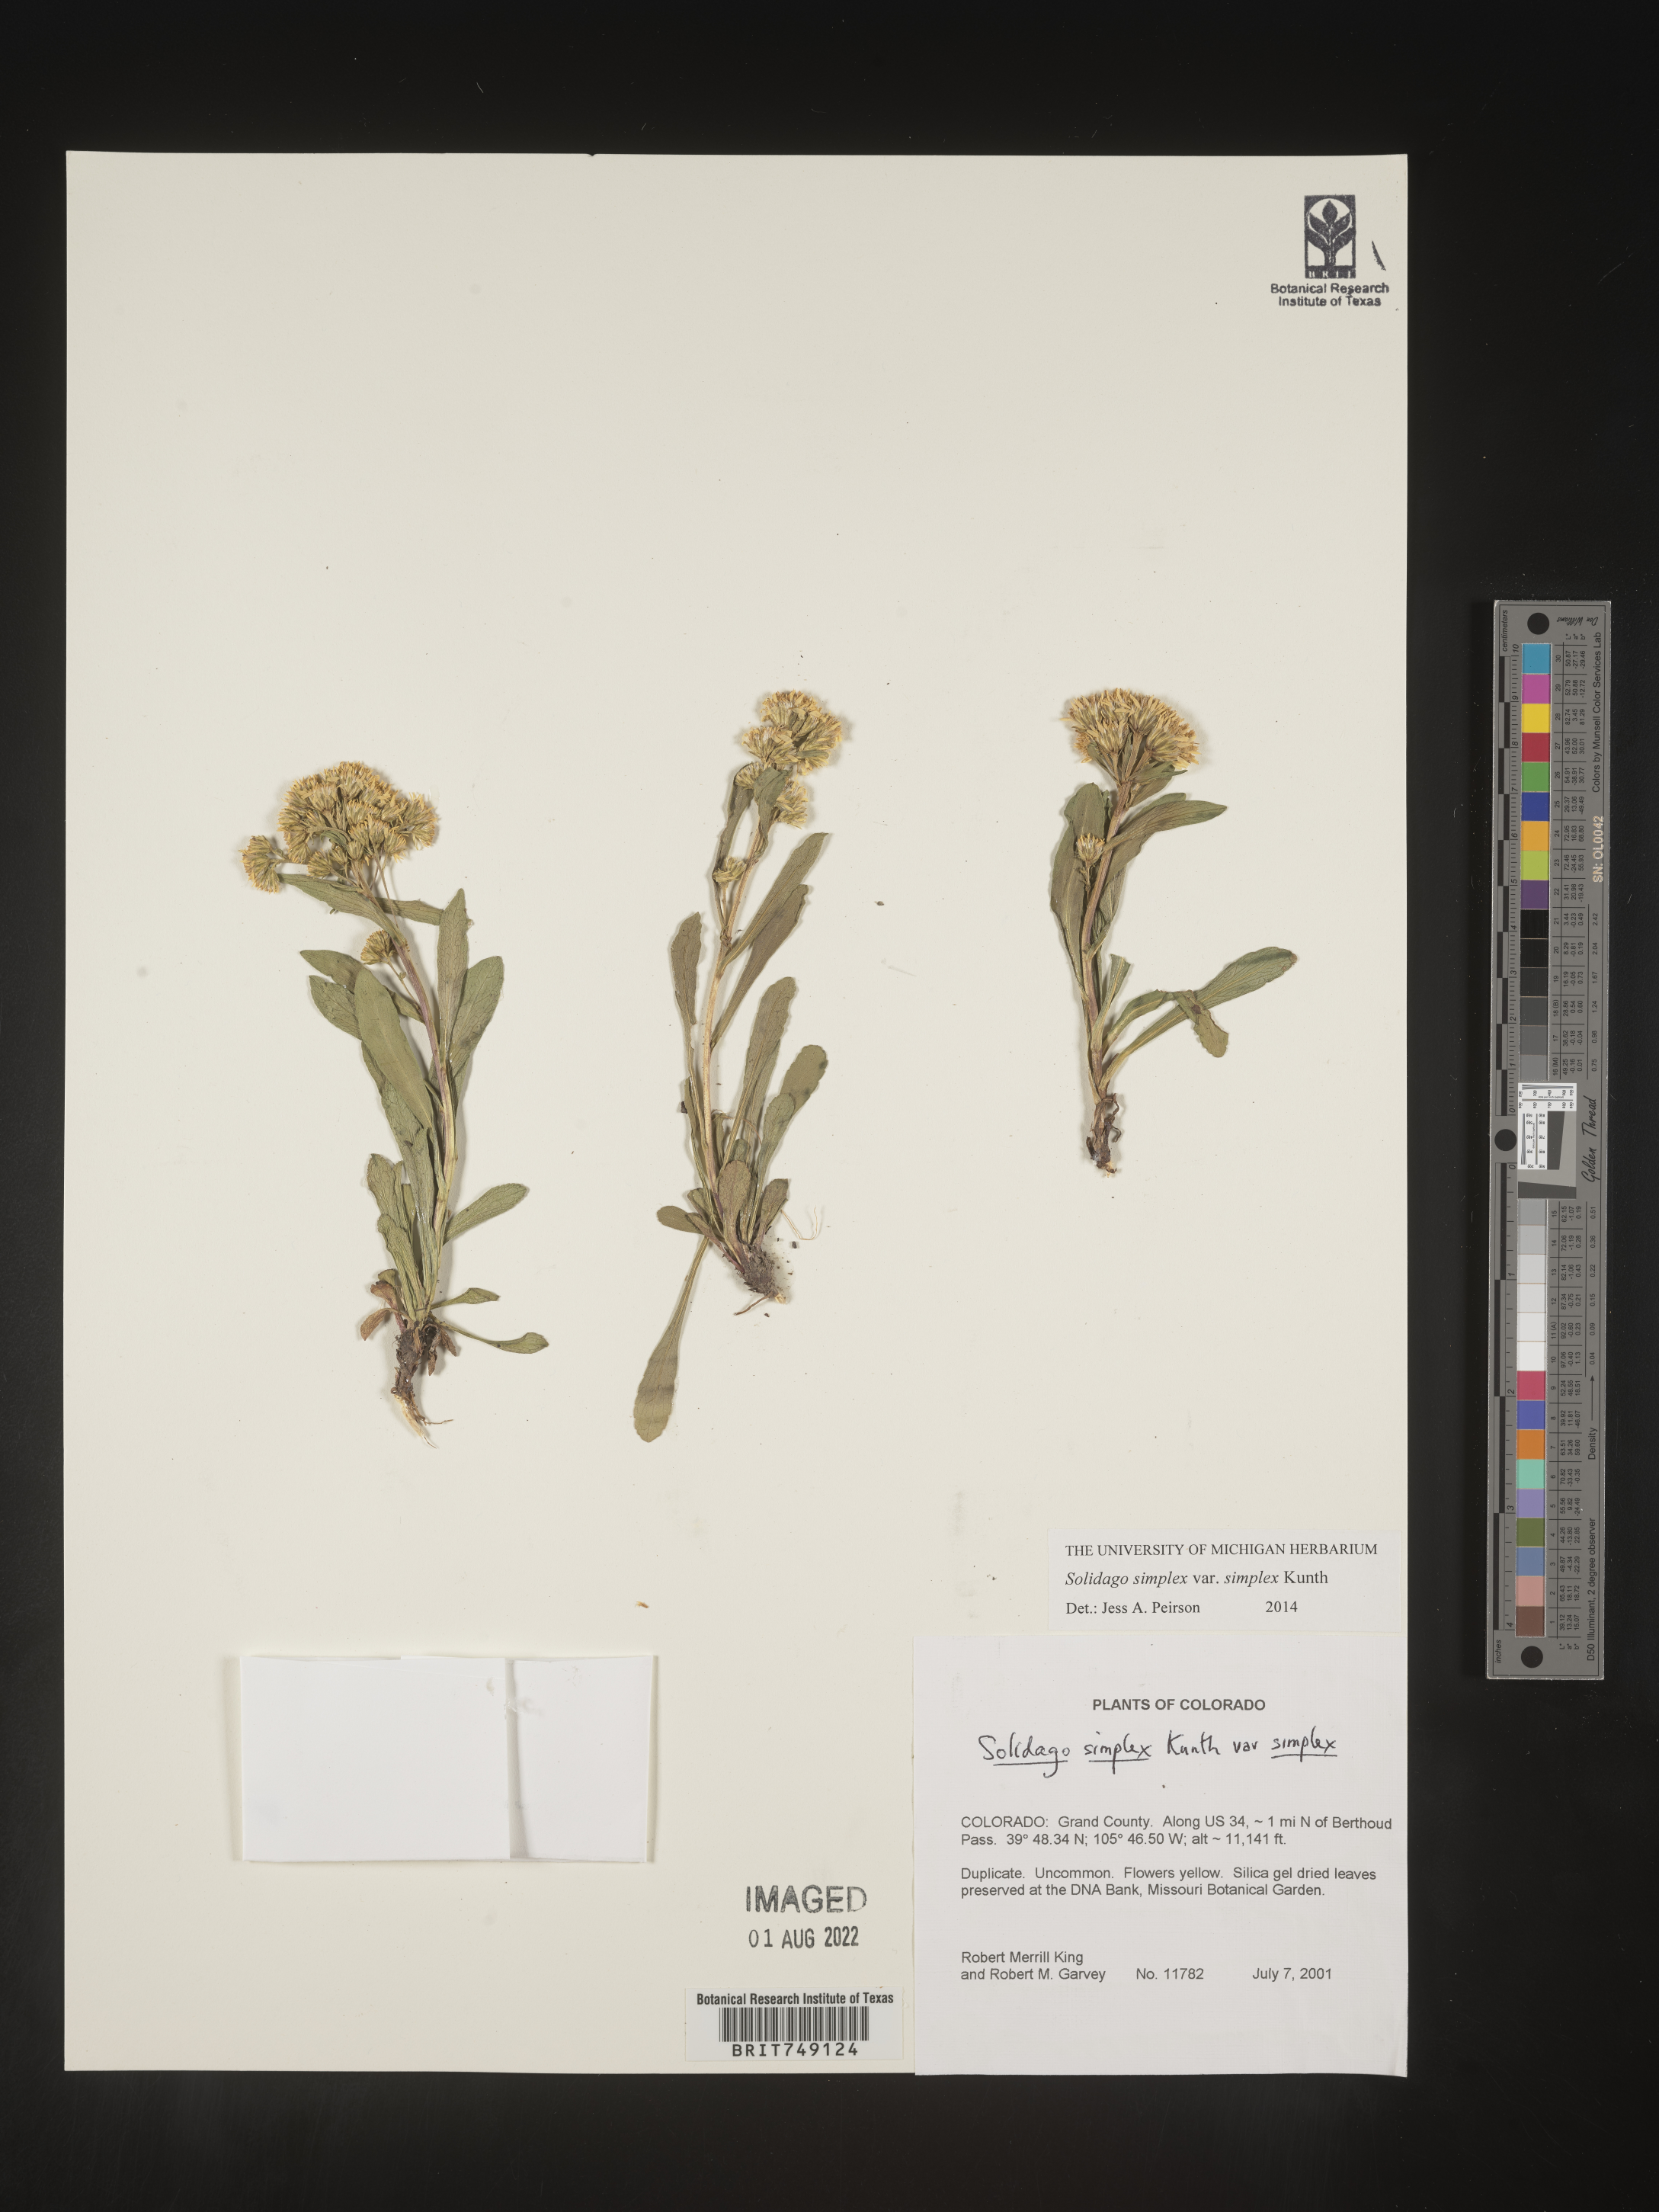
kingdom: Plantae
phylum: Tracheophyta
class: Magnoliopsida
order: Asterales
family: Asteraceae
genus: Solidago
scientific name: Solidago simplex
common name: Sticky goldenrod
